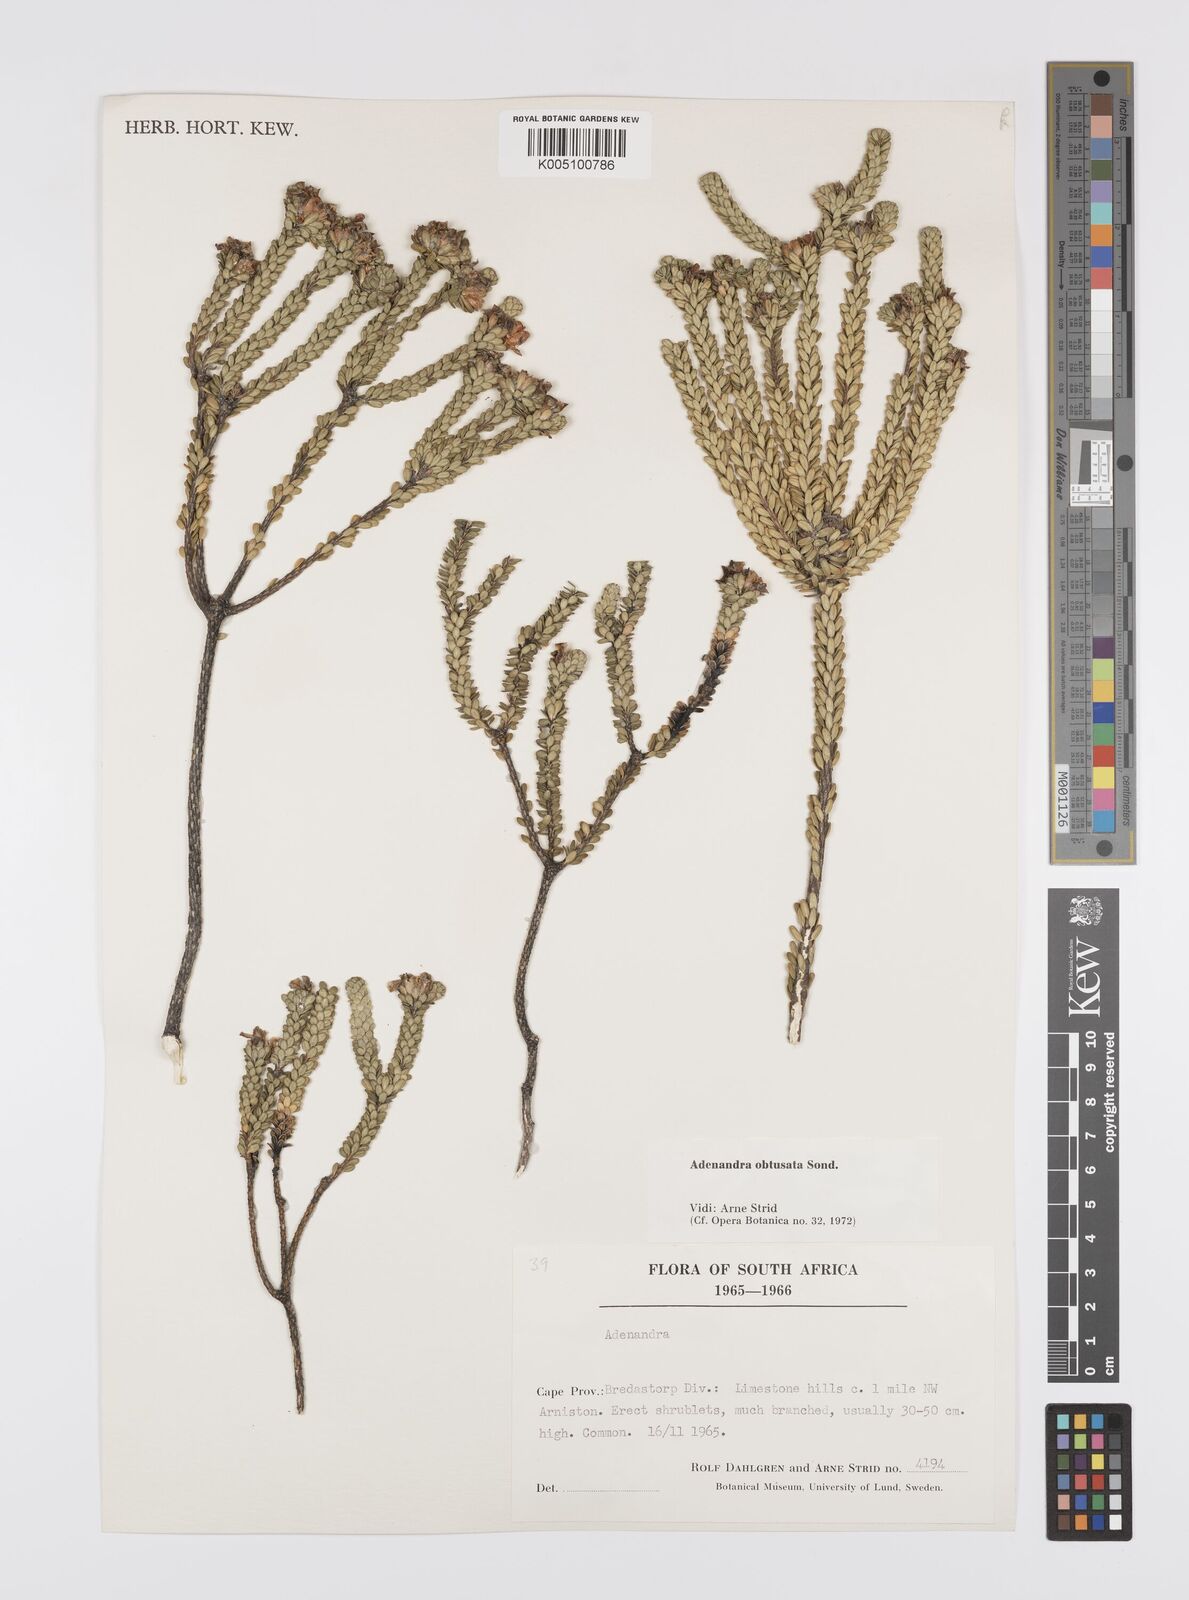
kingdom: Plantae
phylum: Tracheophyta
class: Magnoliopsida
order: Sapindales
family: Rutaceae
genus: Adenandra
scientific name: Adenandra obtusata
